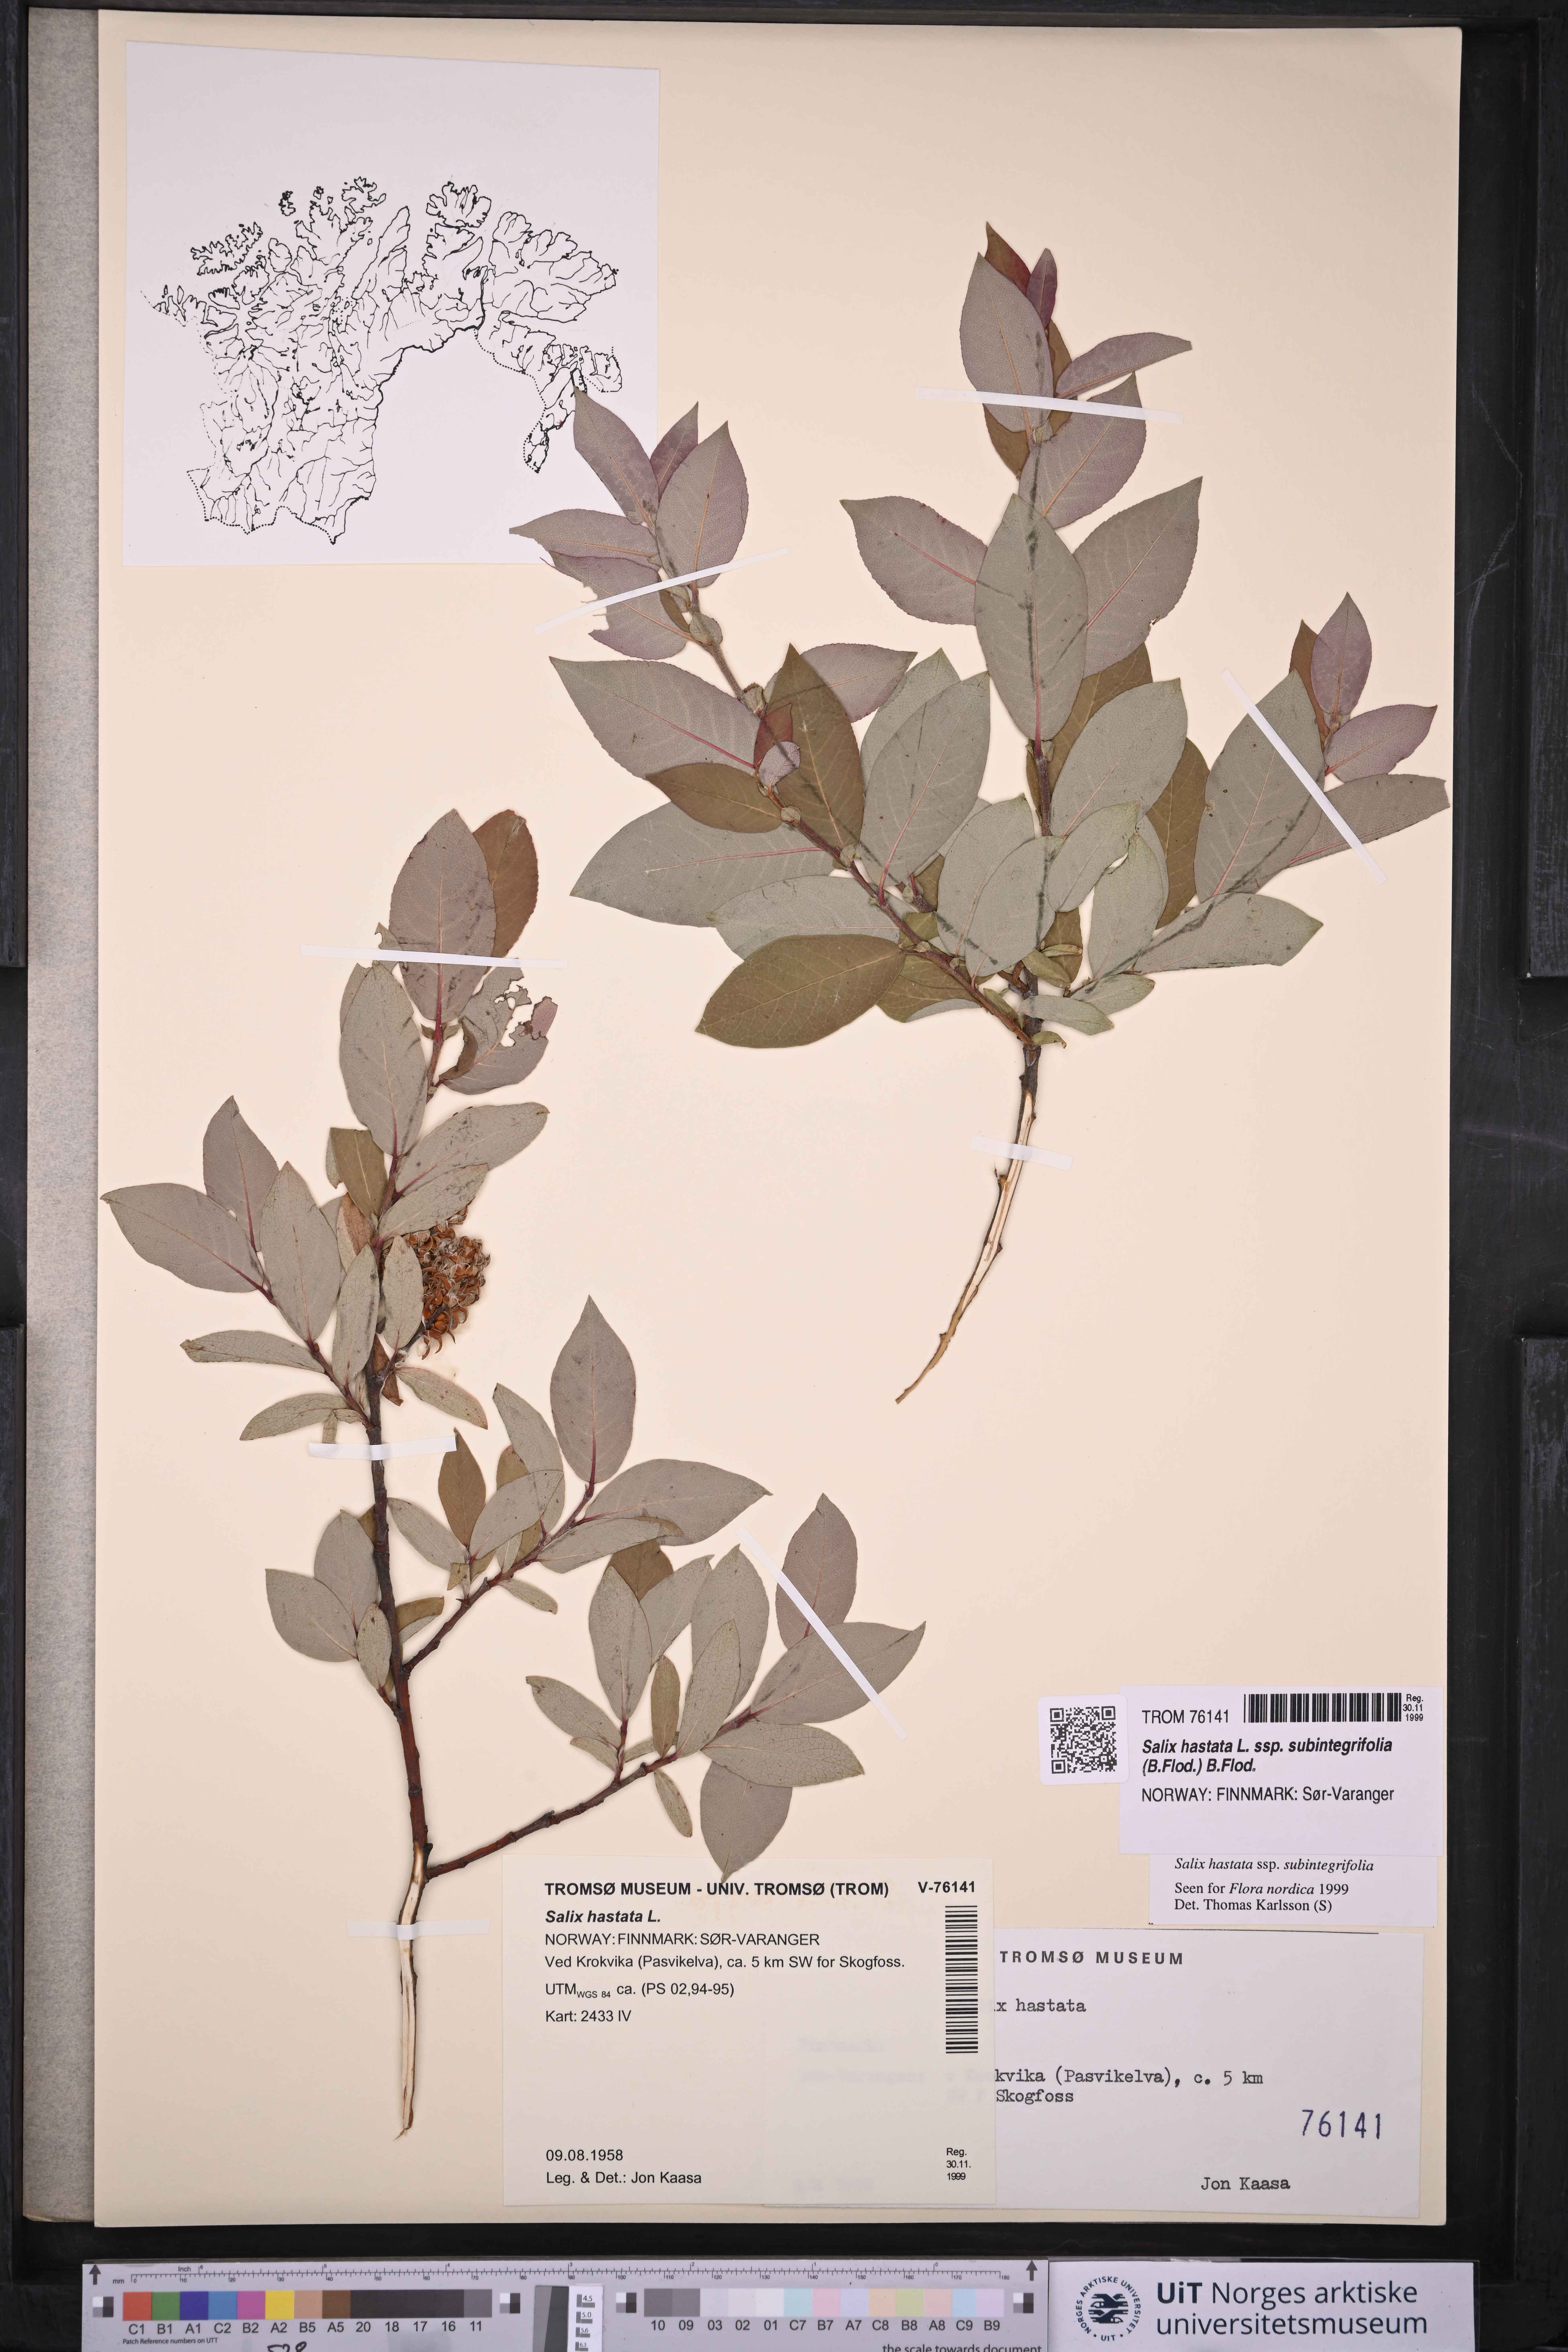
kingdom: Plantae
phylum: Tracheophyta
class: Magnoliopsida
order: Malpighiales
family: Salicaceae
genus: Salix
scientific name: Salix hastata
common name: Halberd willow
